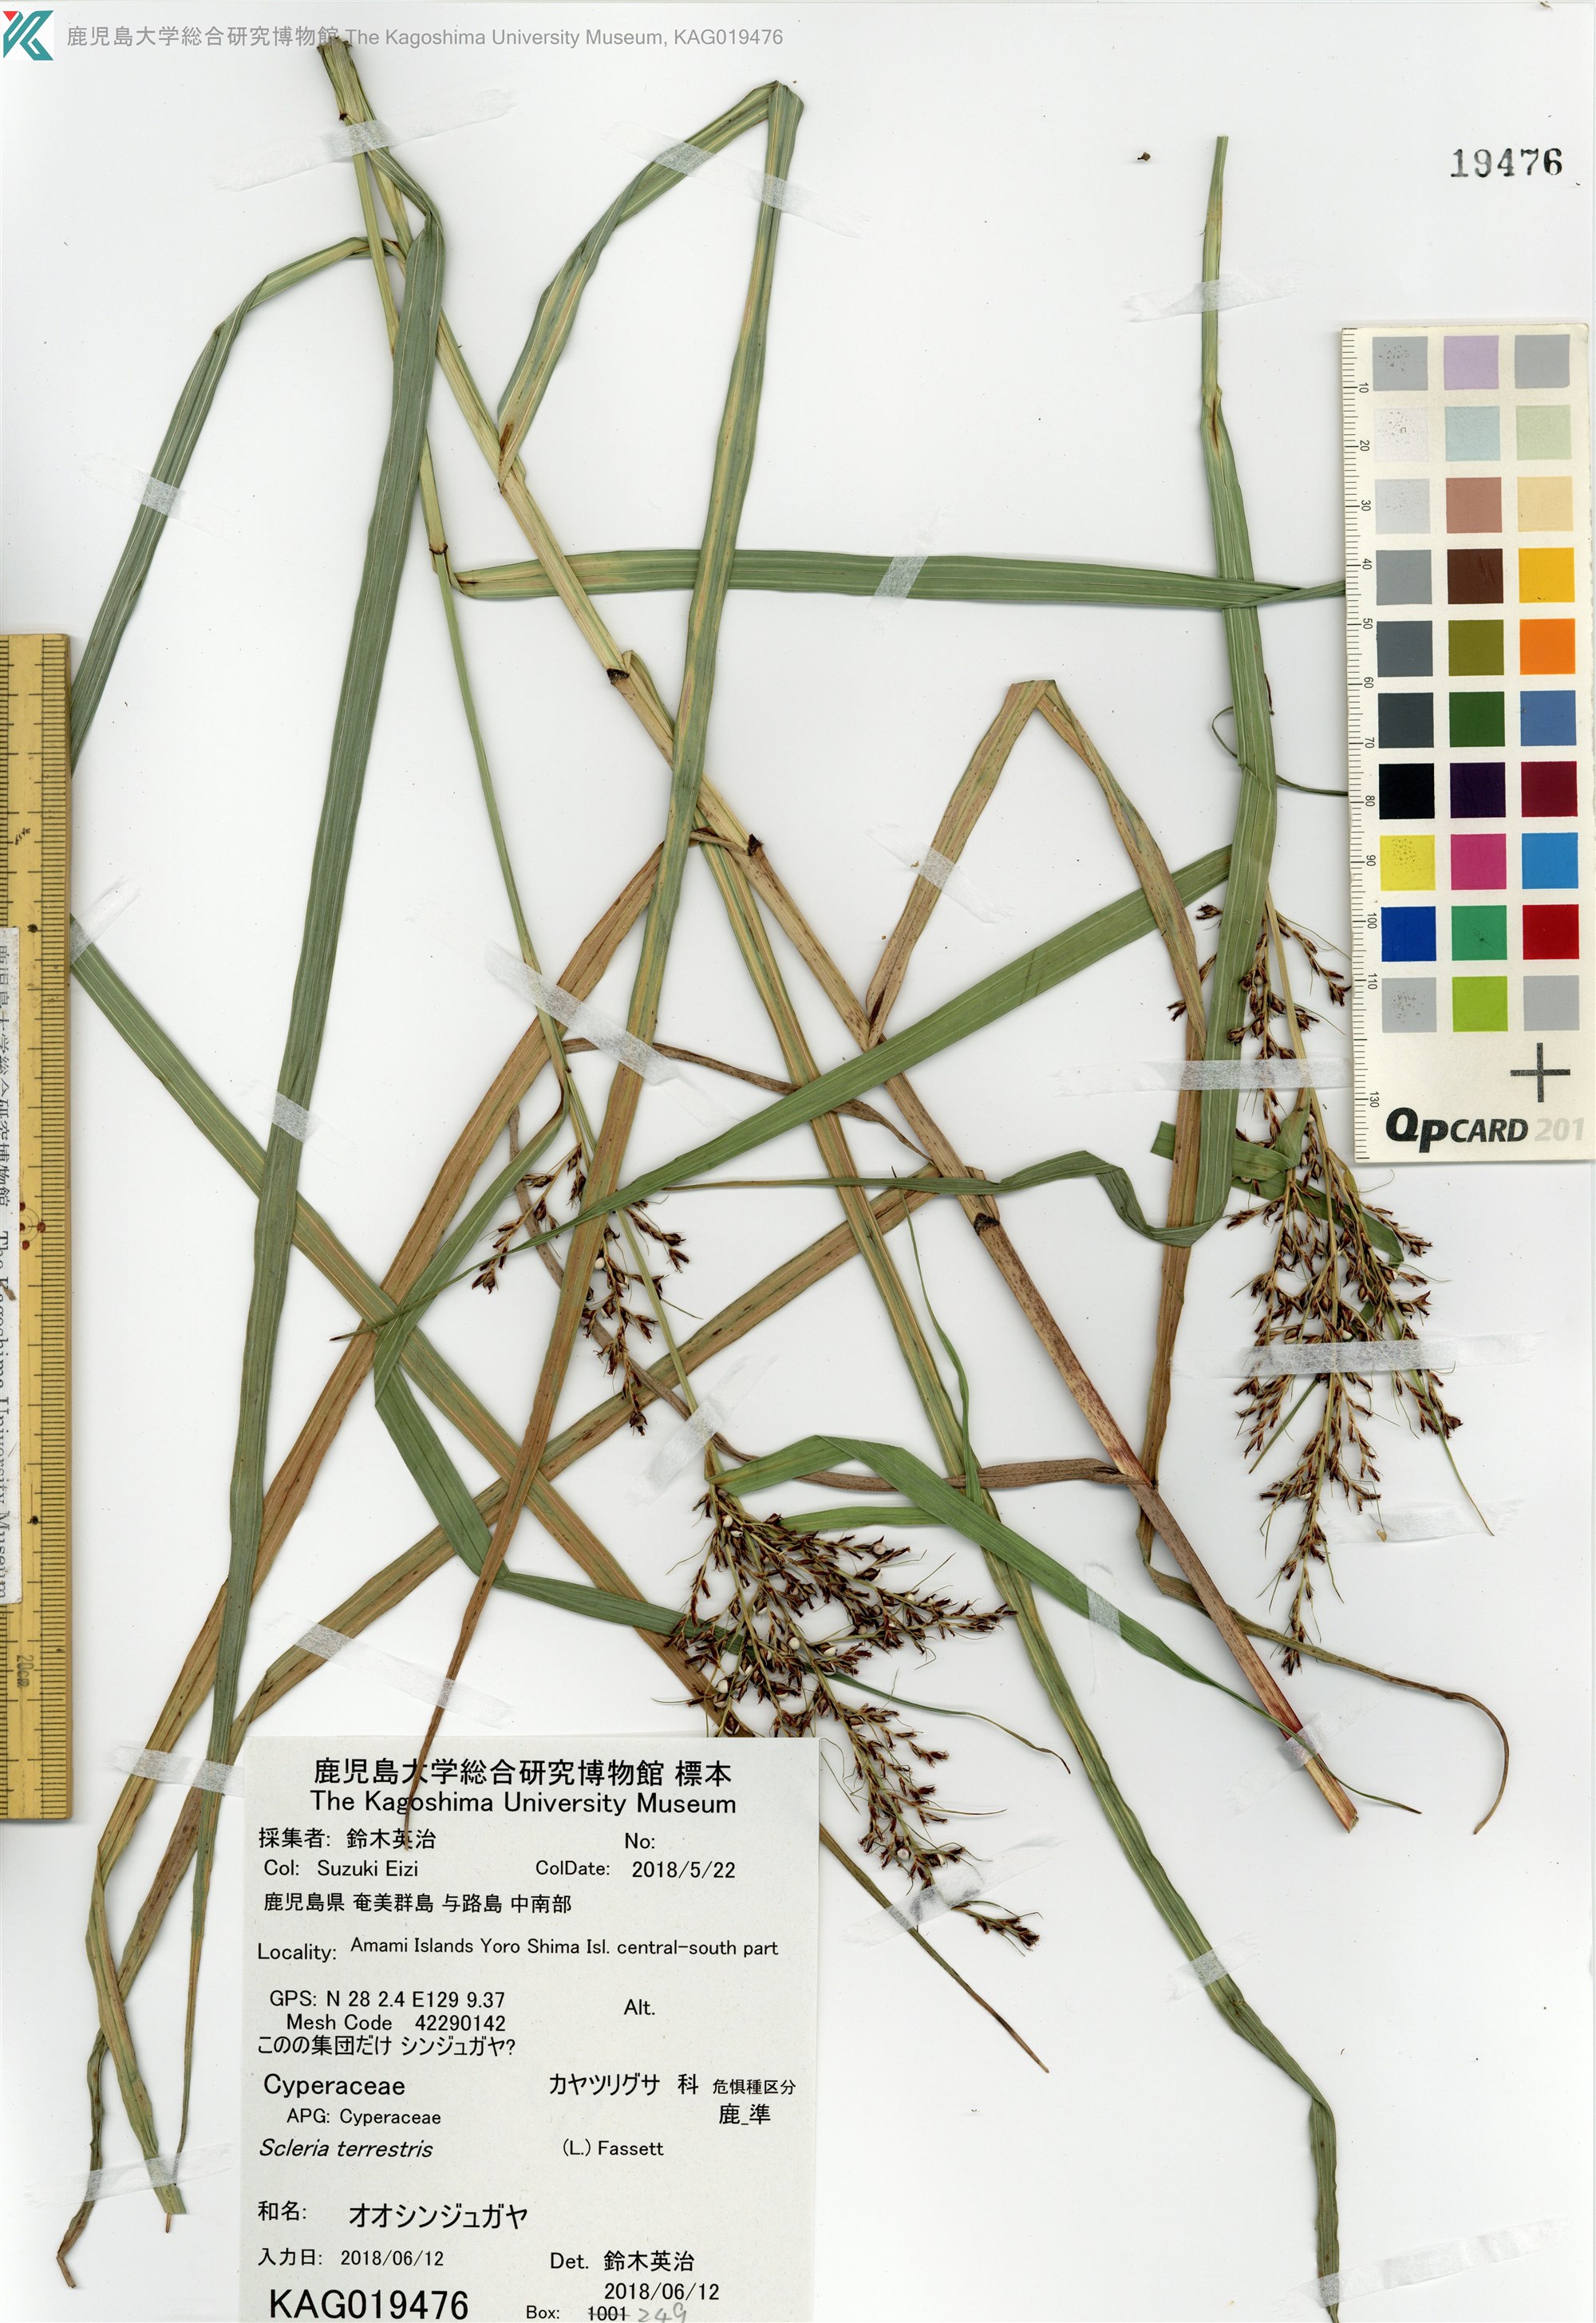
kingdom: Plantae
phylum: Tracheophyta
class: Liliopsida
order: Poales
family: Cyperaceae
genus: Scleria
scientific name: Scleria terrestris
